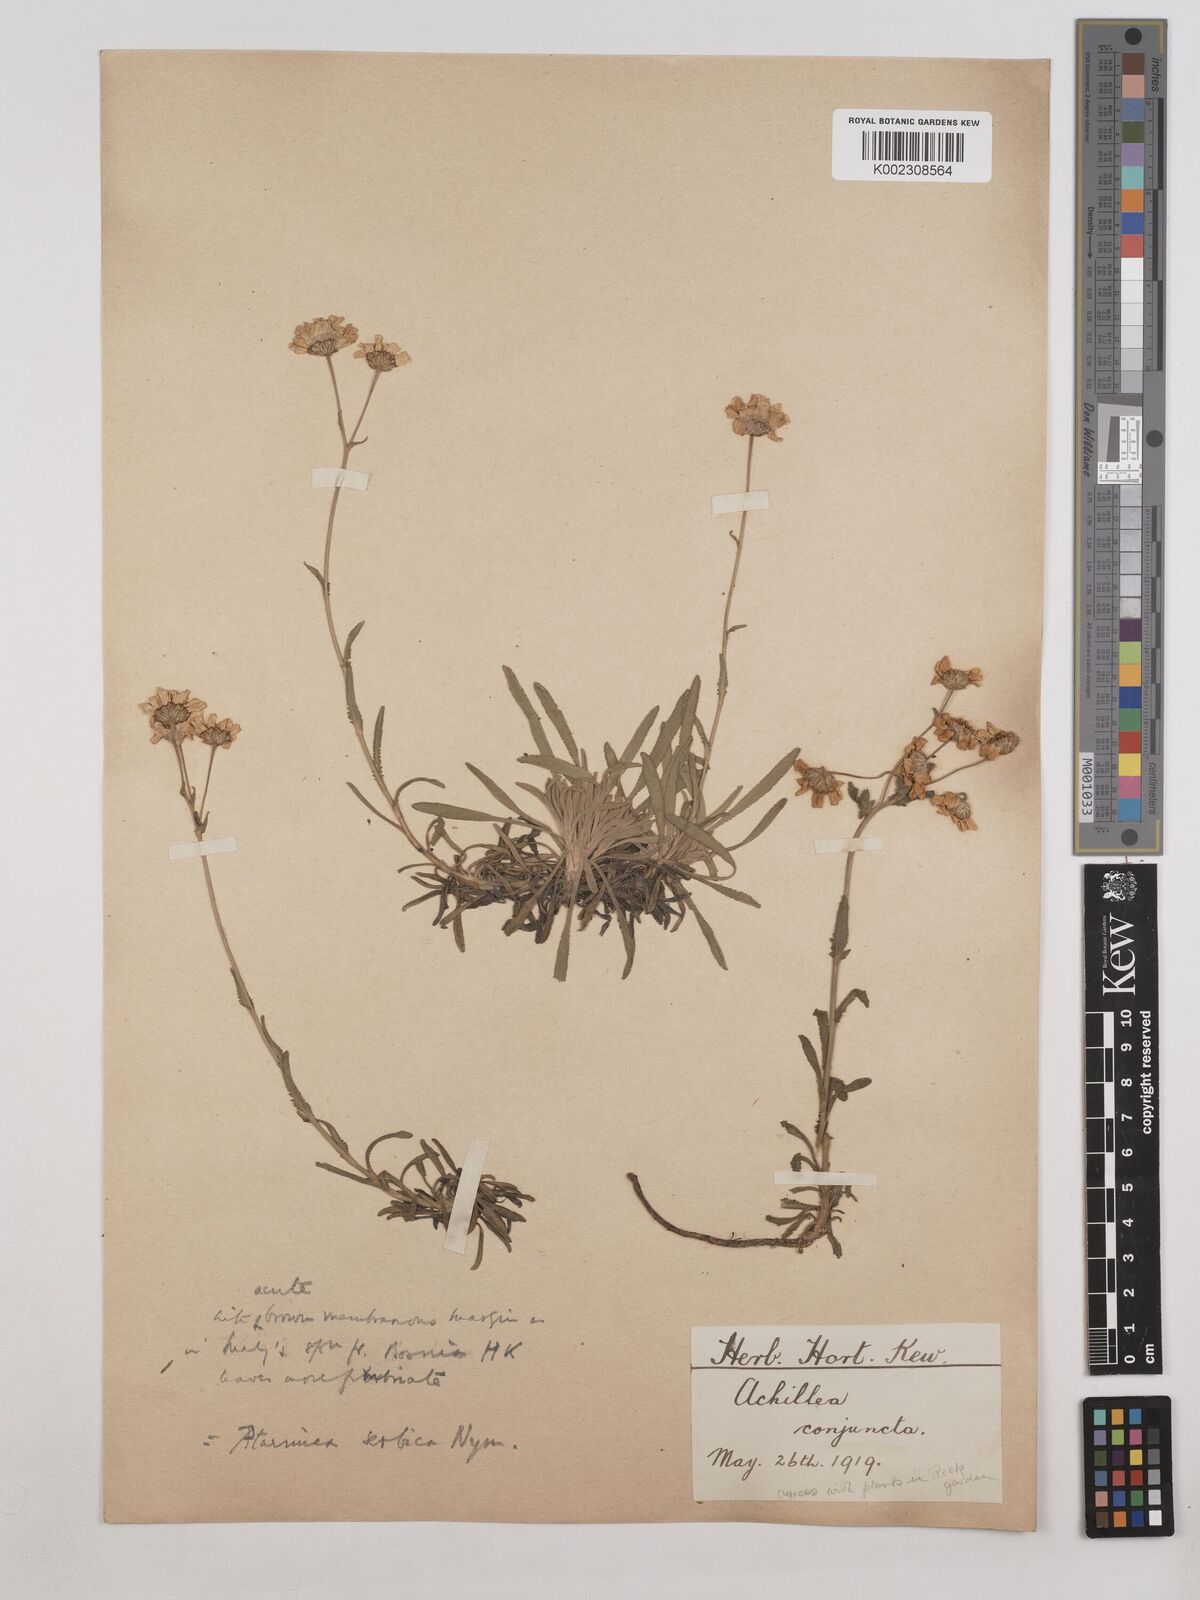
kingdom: Plantae
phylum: Tracheophyta
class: Magnoliopsida
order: Asterales
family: Asteraceae
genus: Achillea
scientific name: Achillea ageratifolia
